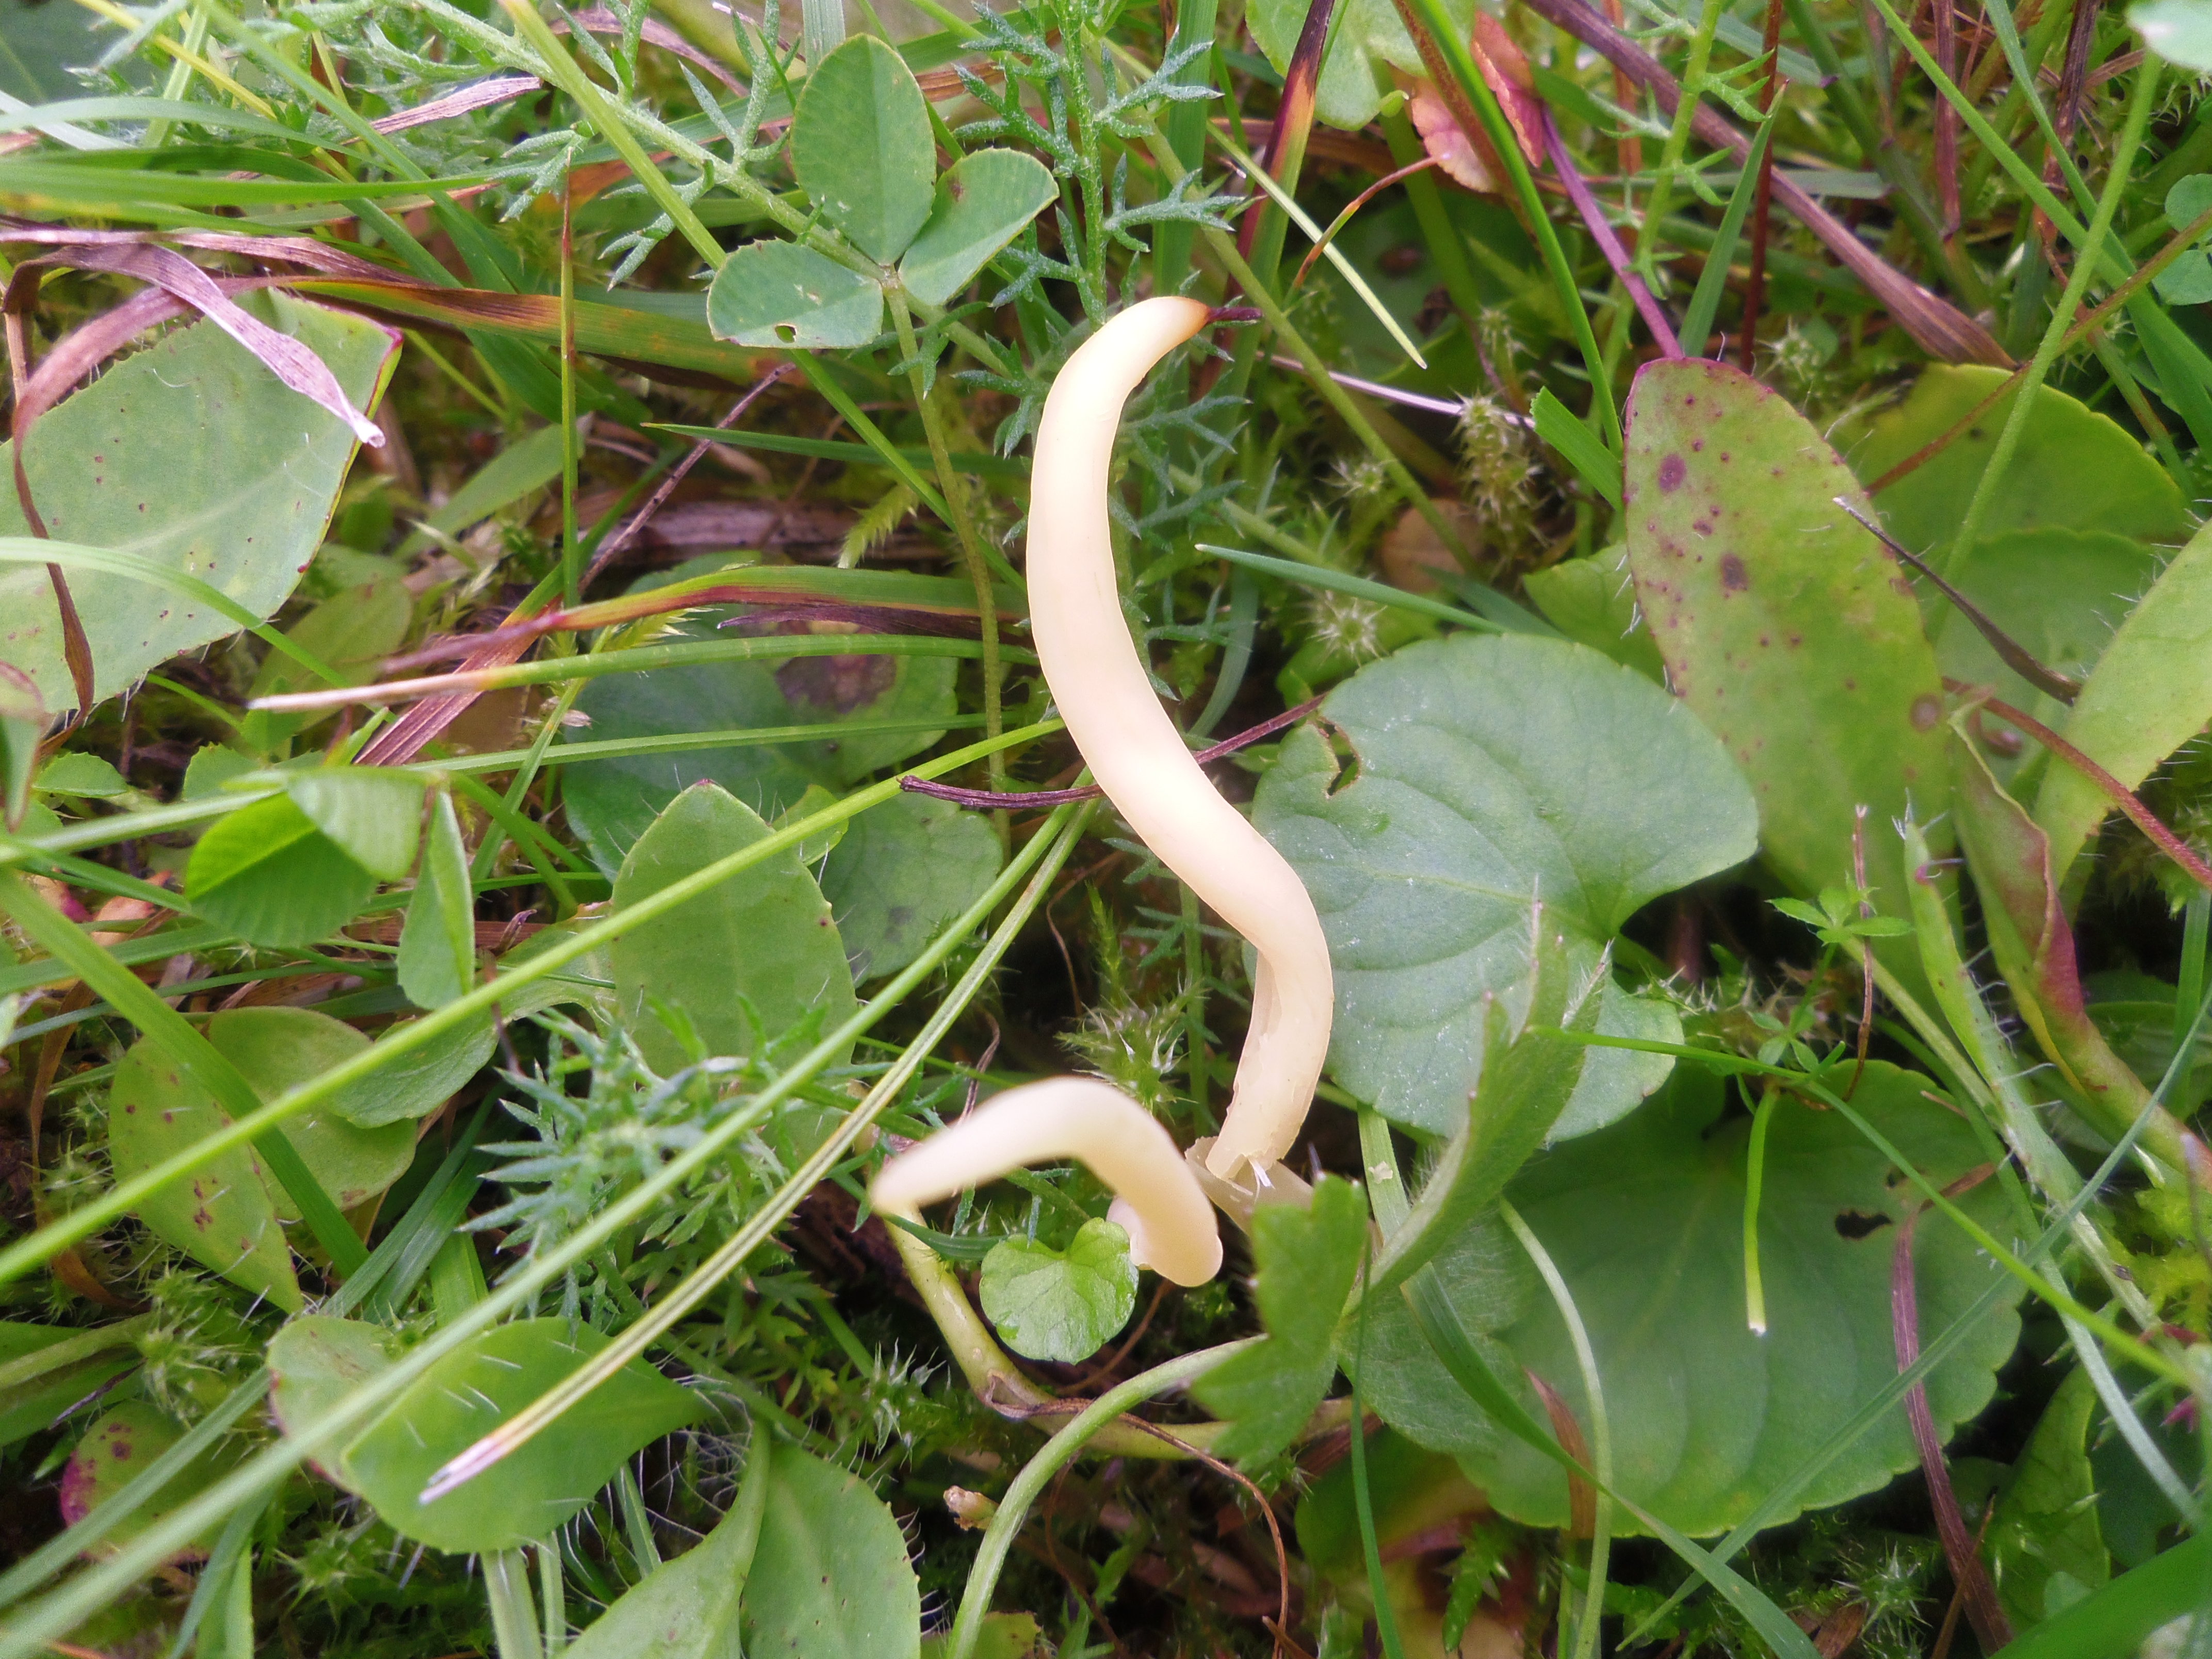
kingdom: Fungi
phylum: Basidiomycota
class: Agaricomycetes
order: Agaricales
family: Clavariaceae
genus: Clavaria
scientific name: Clavaria falcata
